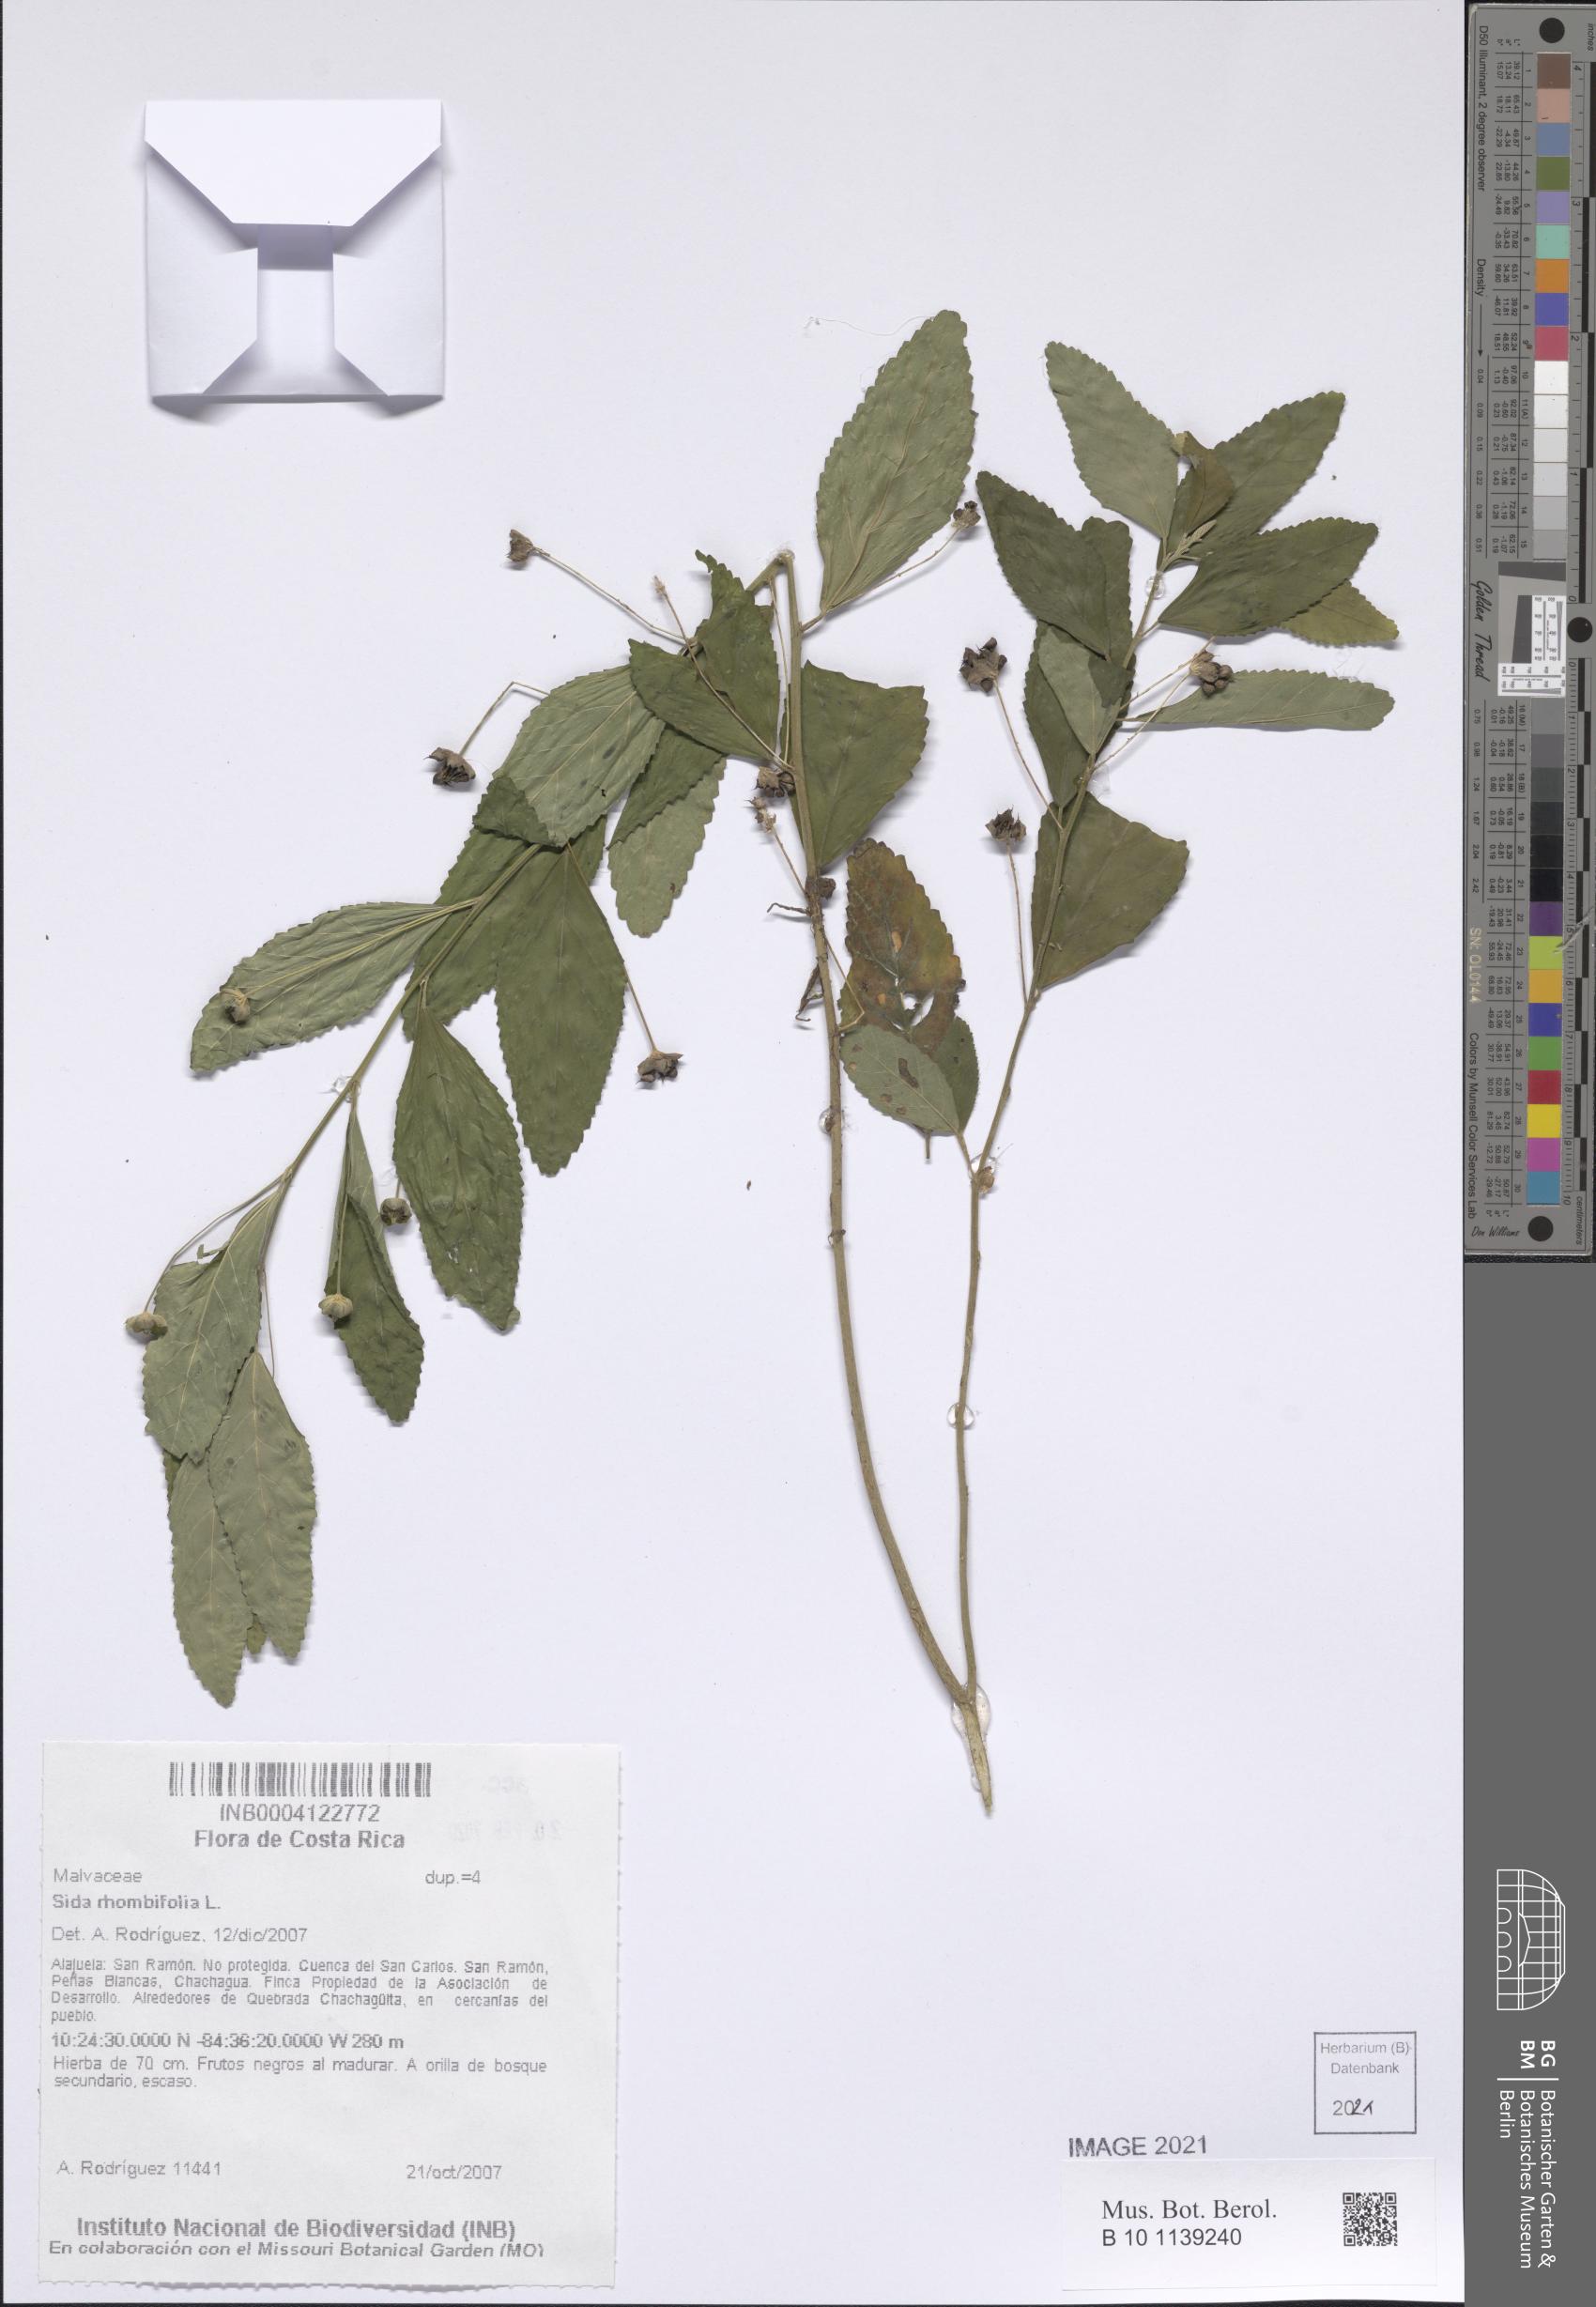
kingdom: Plantae
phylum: Tracheophyta
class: Magnoliopsida
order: Malvales
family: Malvaceae
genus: Sida
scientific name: Sida rhombifolia
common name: Queensland-hemp
